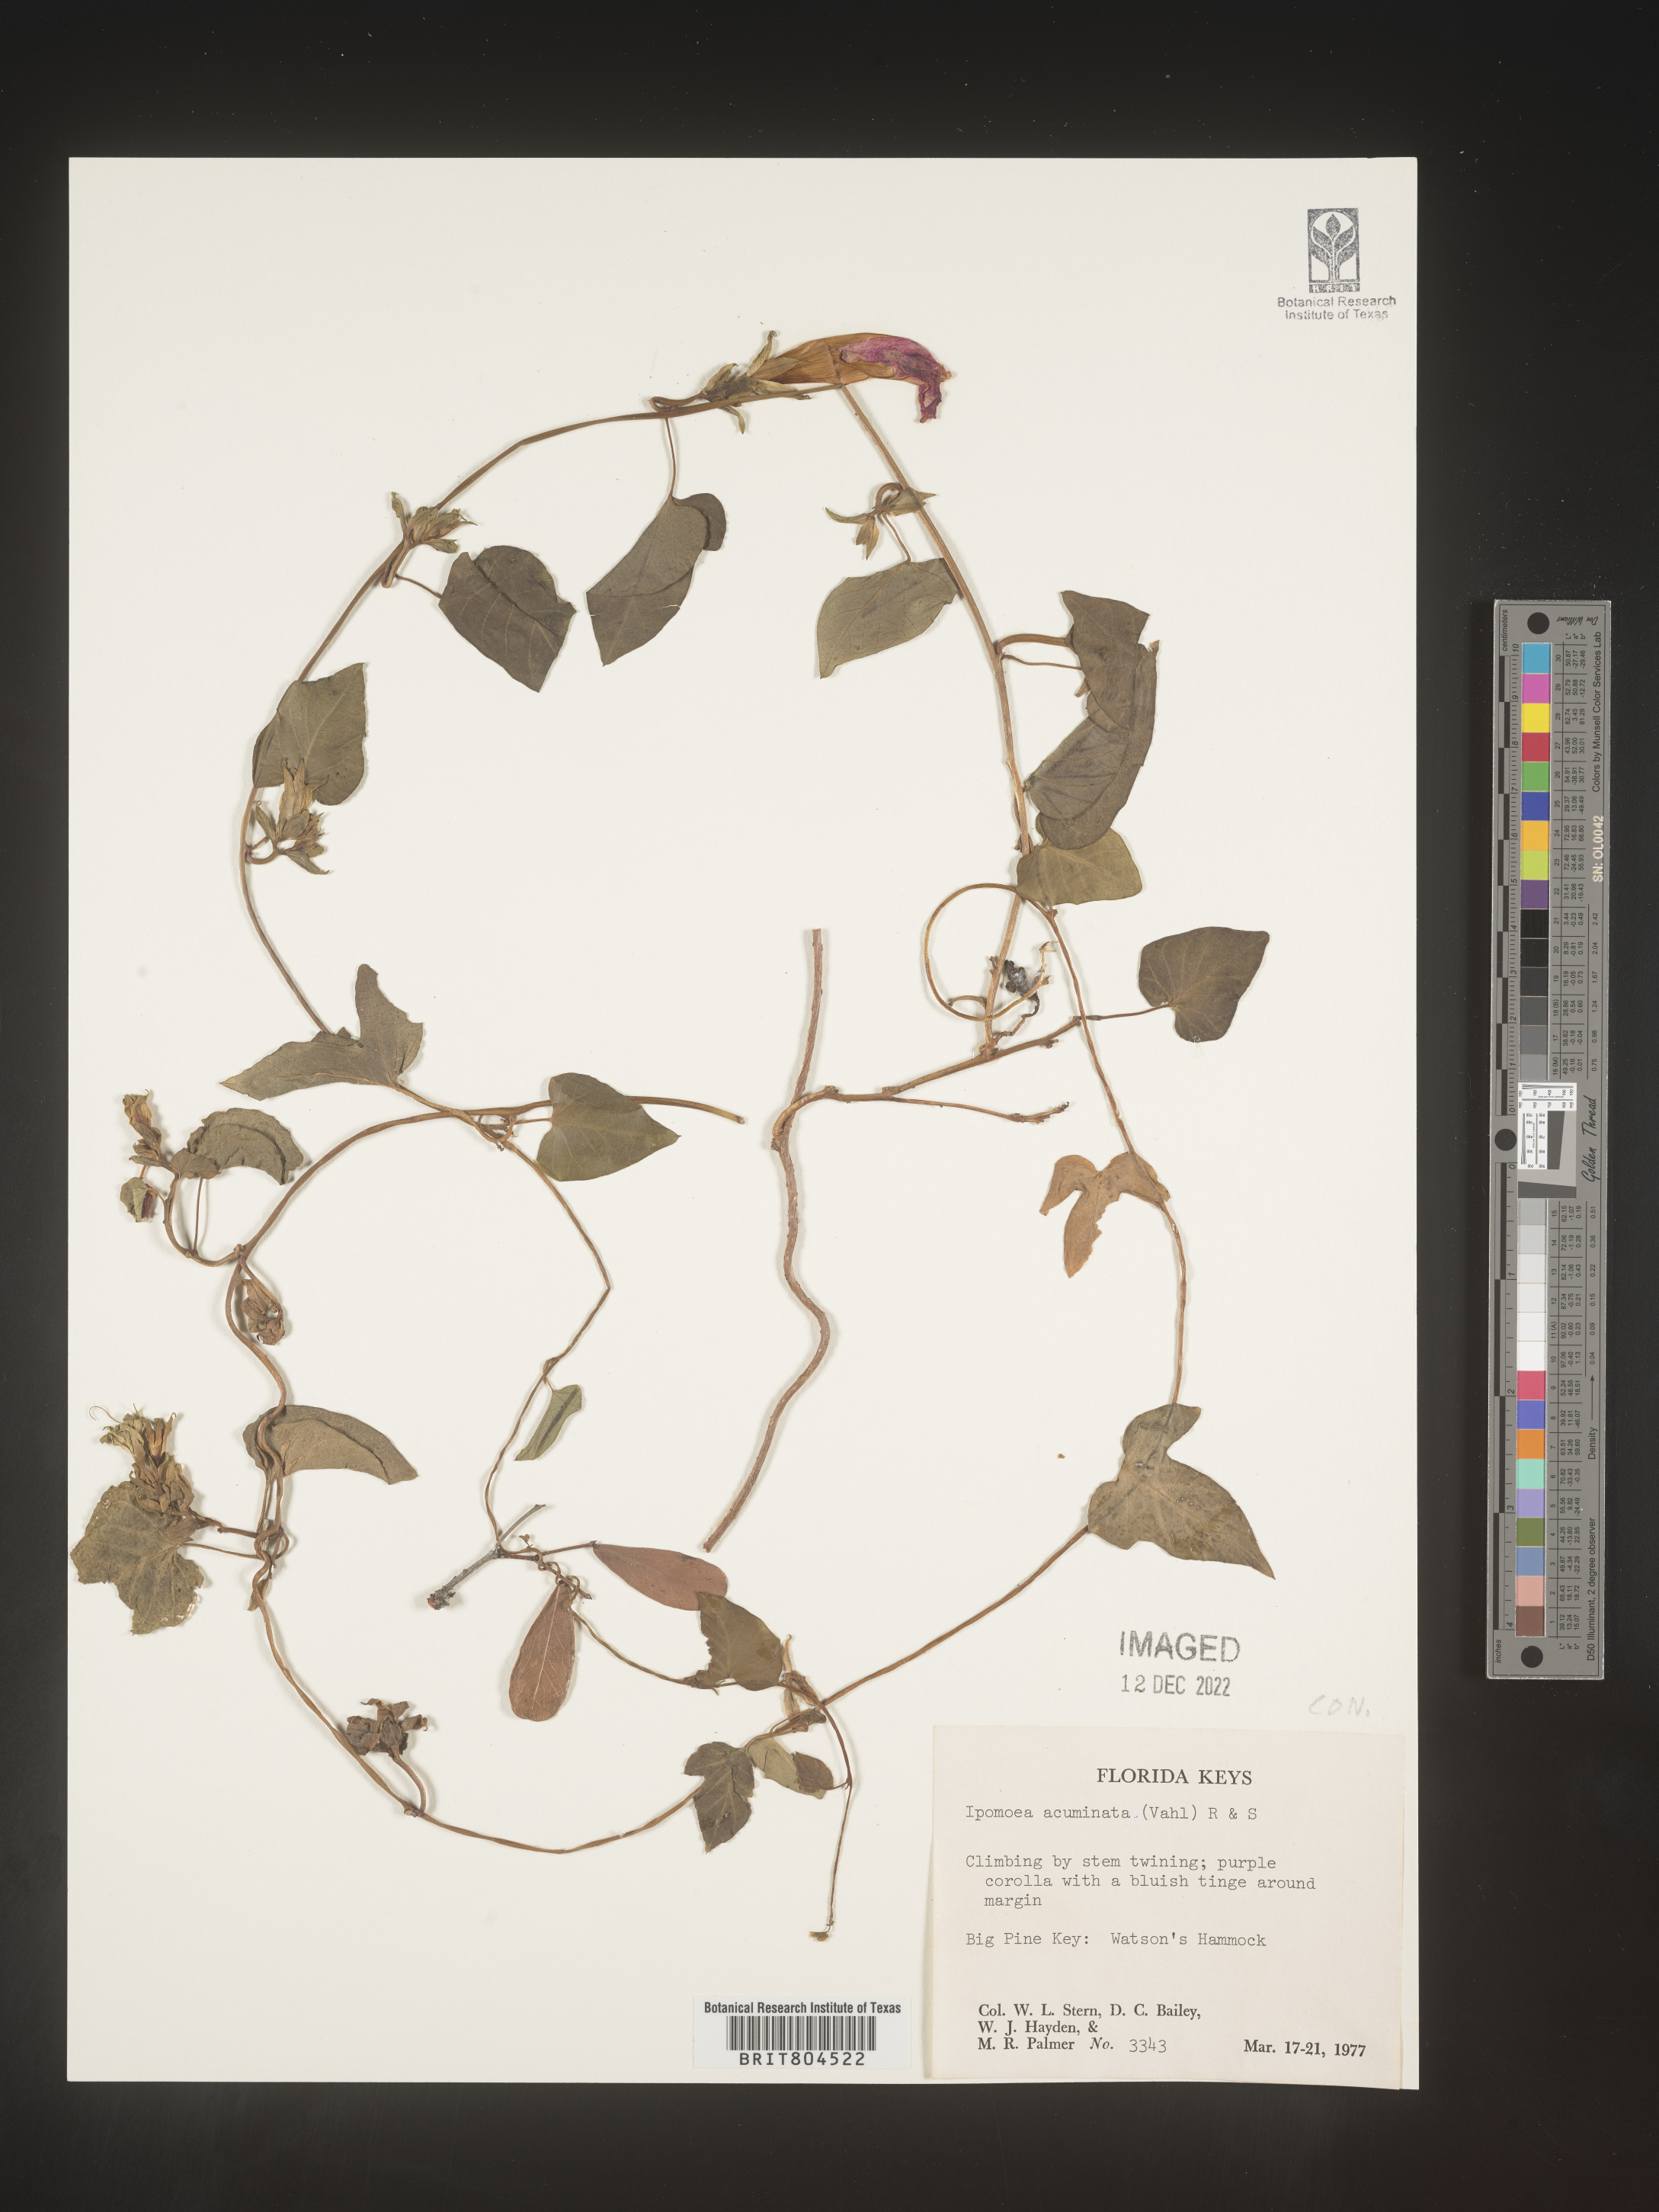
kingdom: Plantae
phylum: Tracheophyta
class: Magnoliopsida
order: Solanales
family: Convolvulaceae
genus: Ipomoea
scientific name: Ipomoea coccinea
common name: Red morning-glory
